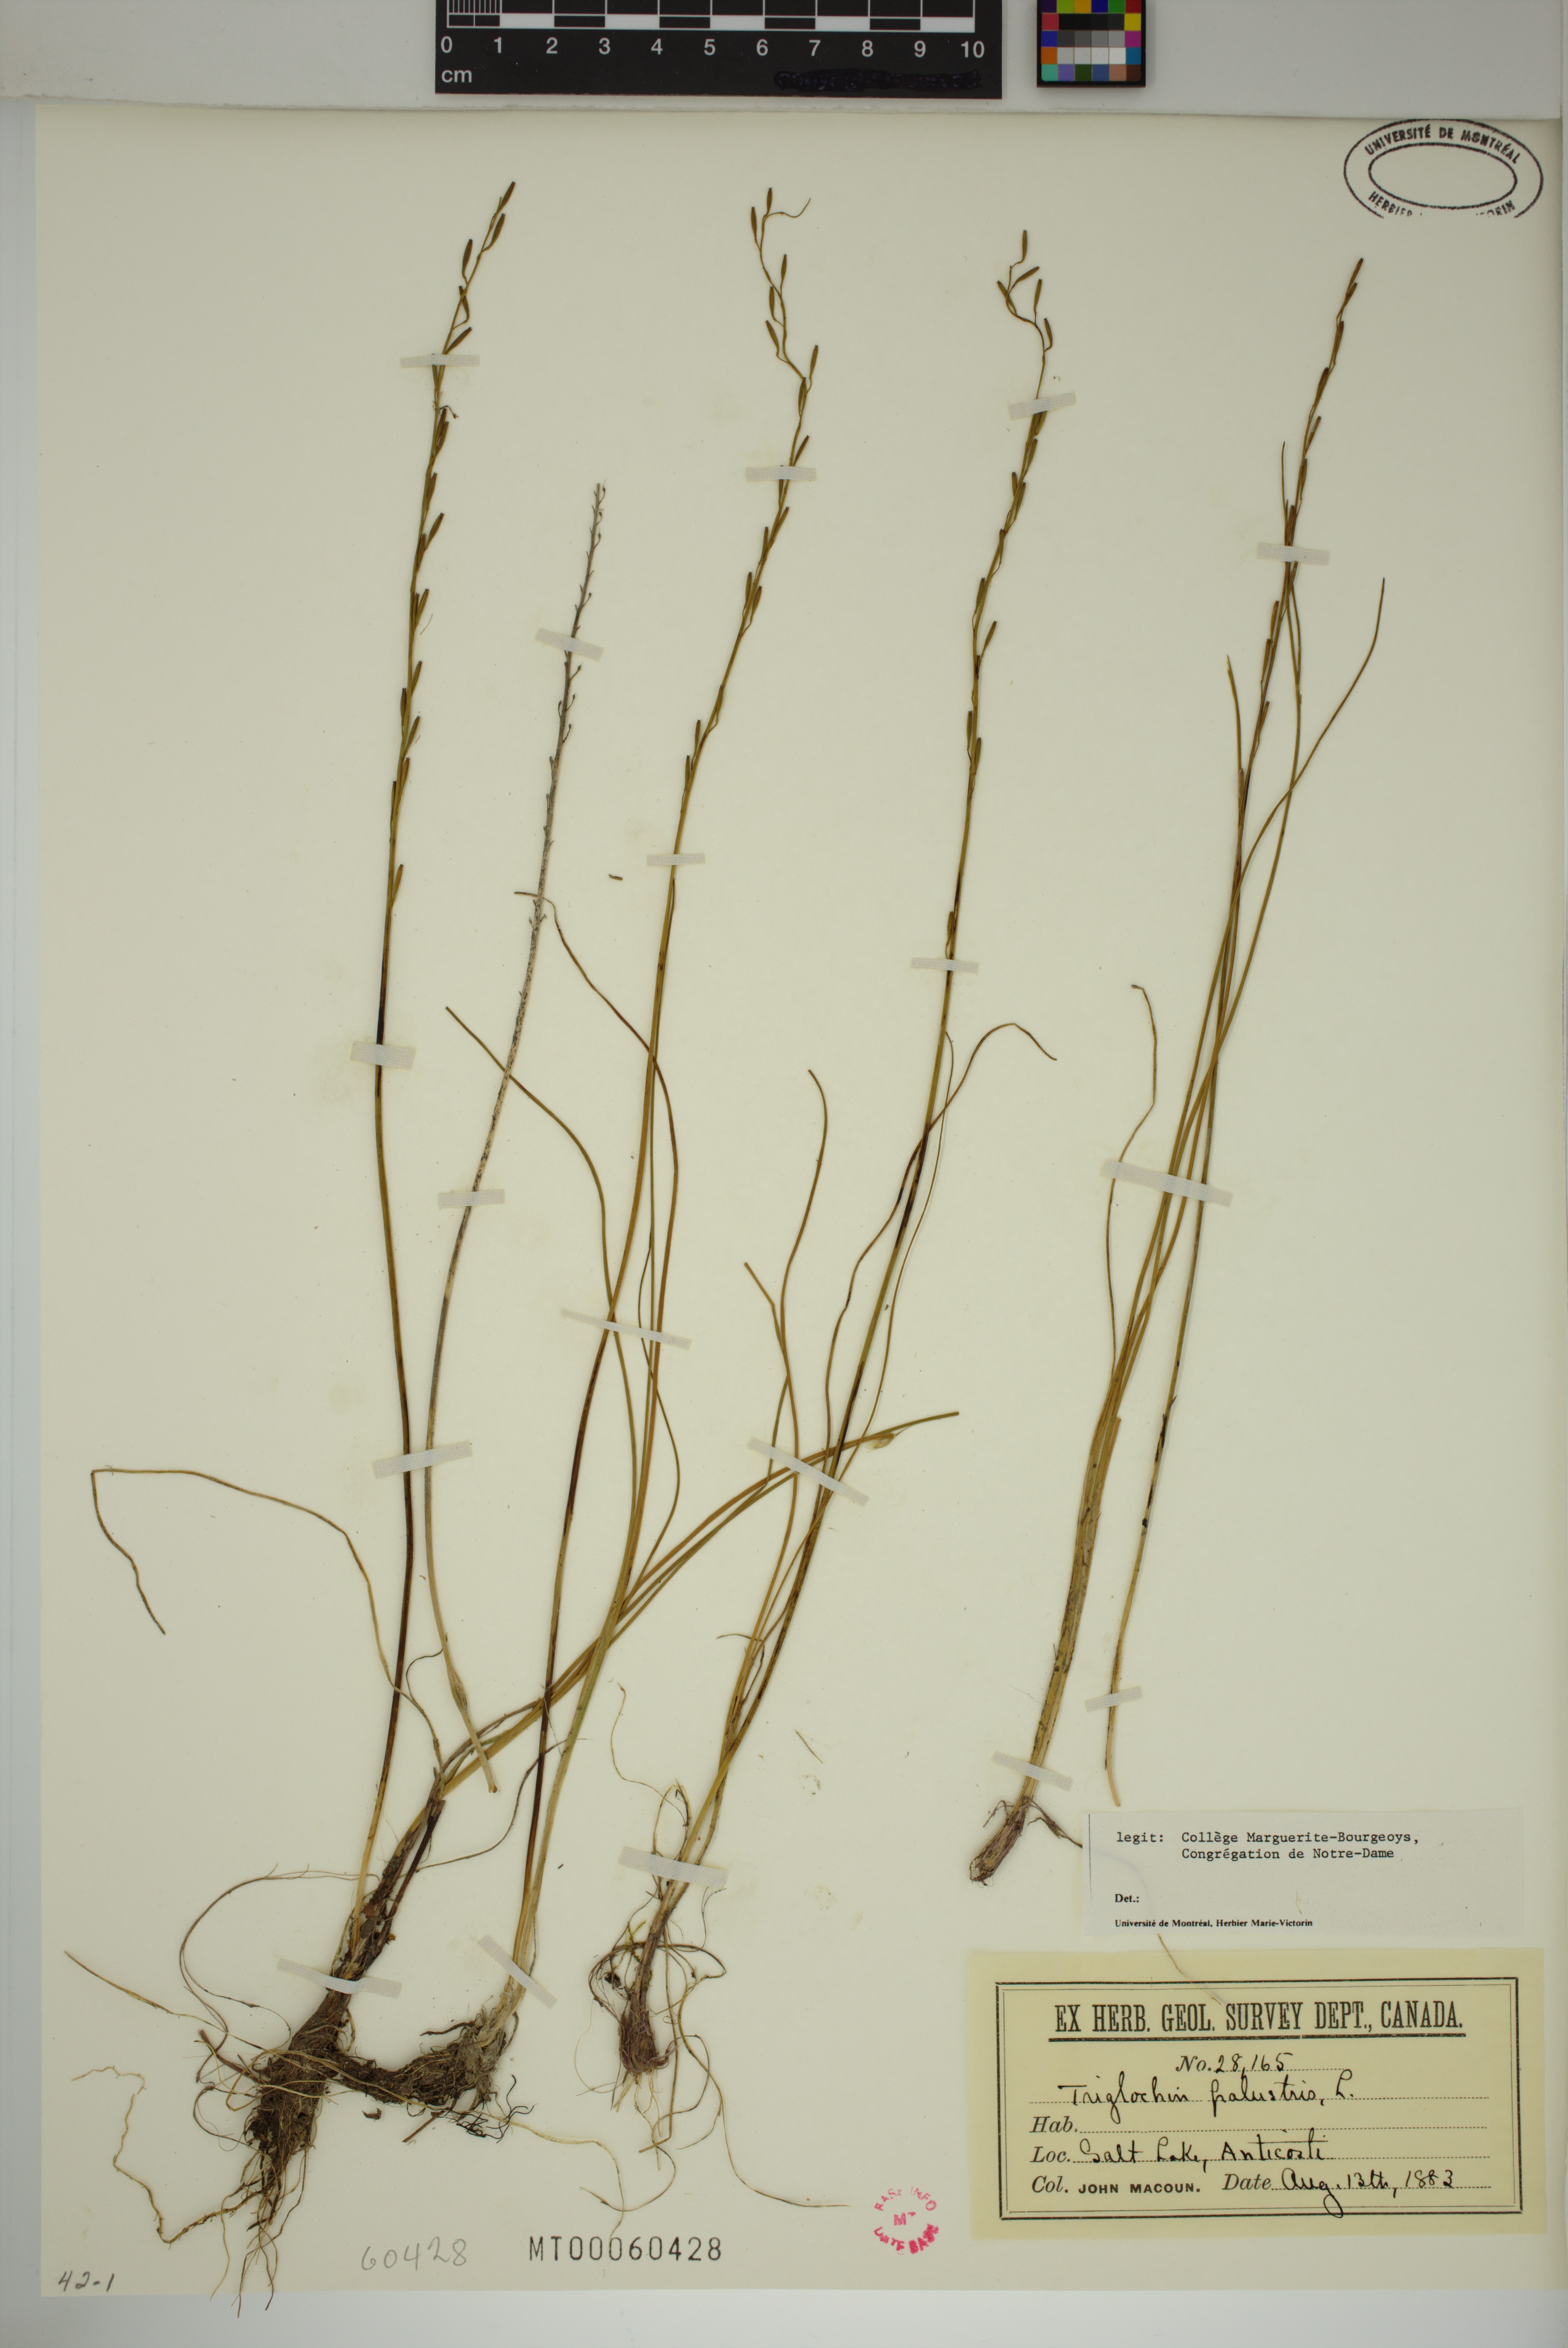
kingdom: Plantae
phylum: Tracheophyta
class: Liliopsida
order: Alismatales
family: Juncaginaceae
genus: Triglochin
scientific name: Triglochin palustris
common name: Marsh arrowgrass
